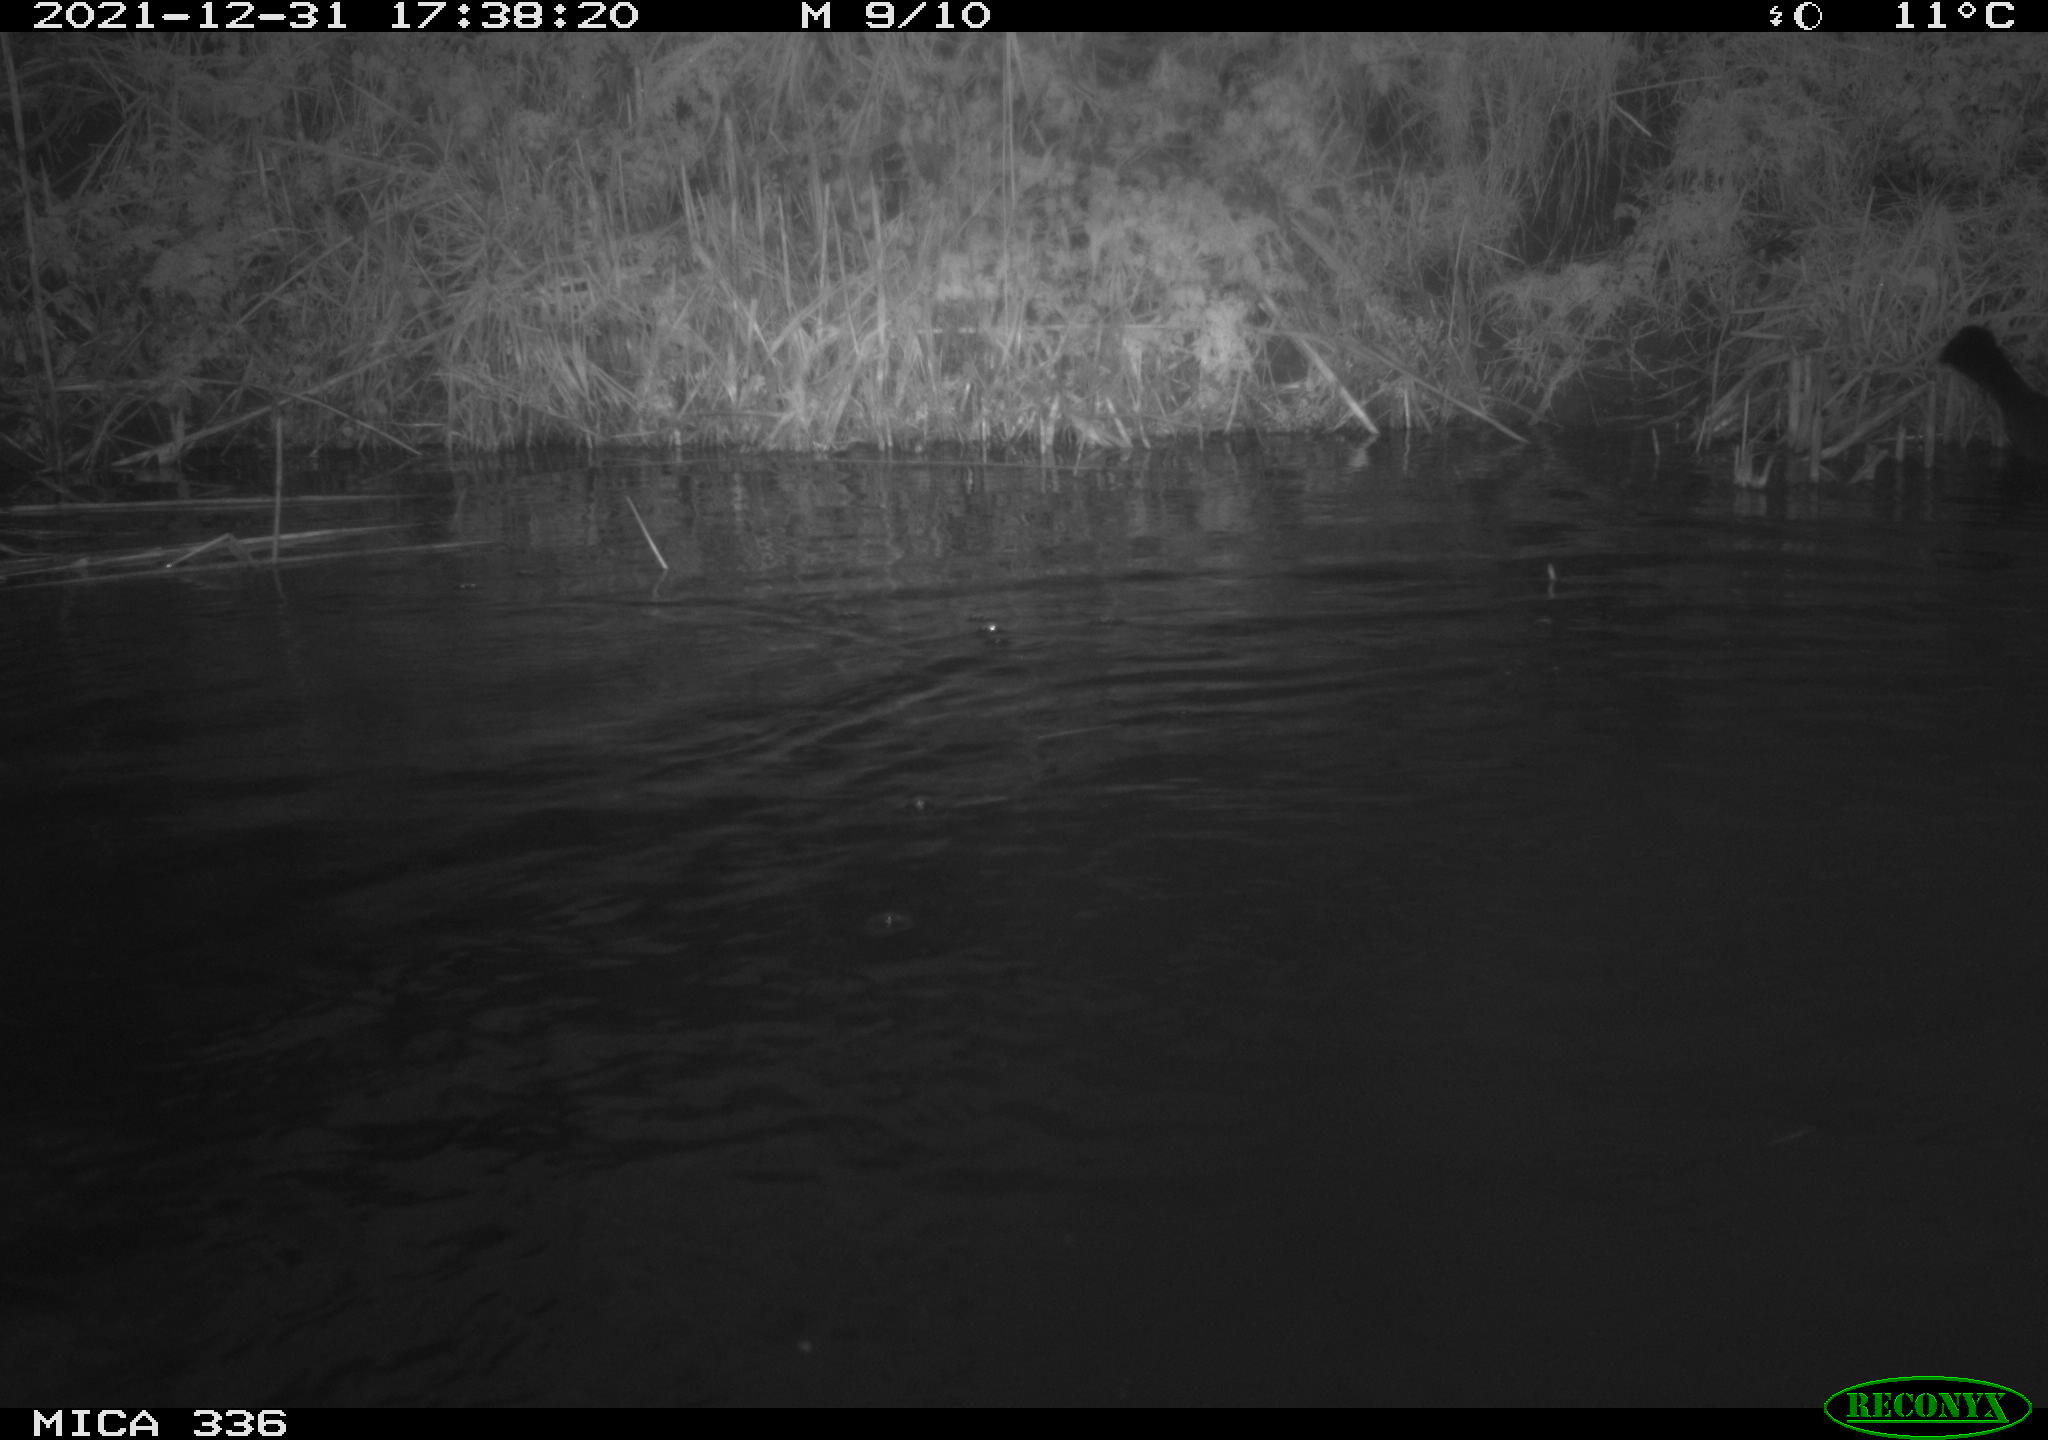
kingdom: Animalia
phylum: Chordata
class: Aves
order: Suliformes
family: Phalacrocoracidae
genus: Phalacrocorax
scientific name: Phalacrocorax carbo
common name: Great cormorant
